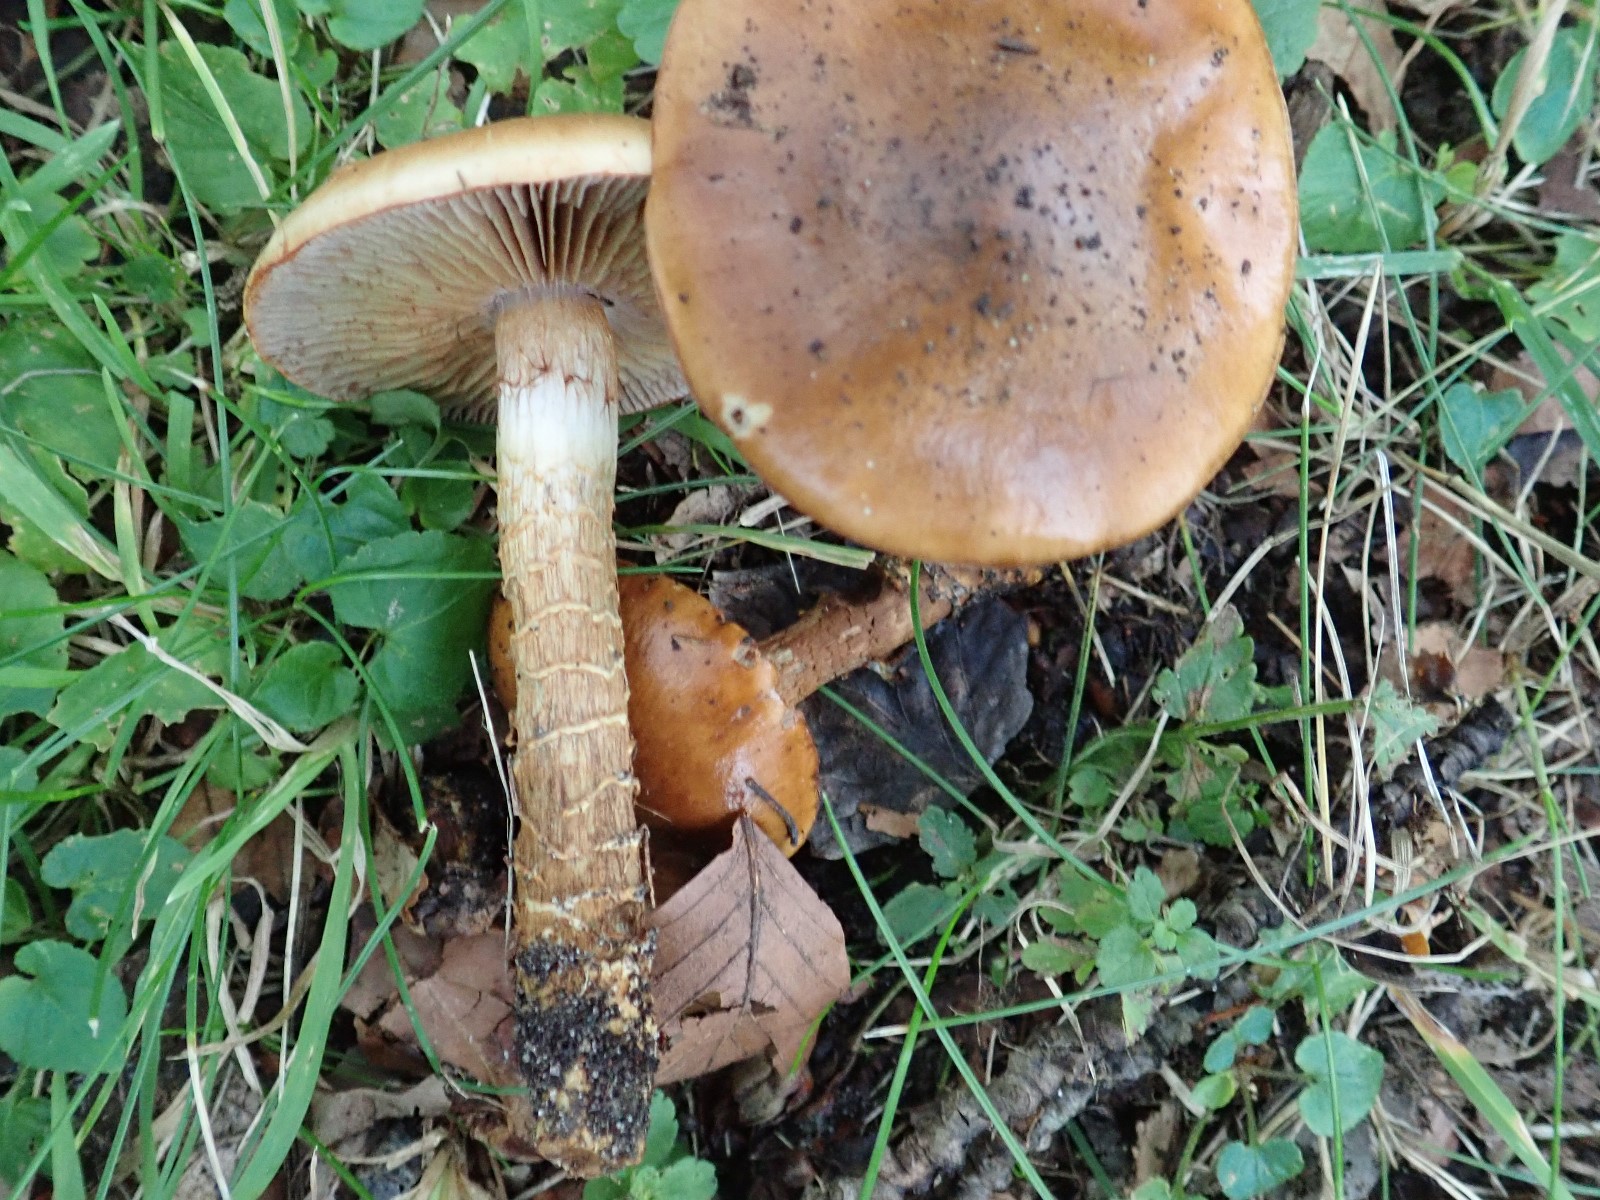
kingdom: Fungi
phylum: Basidiomycota
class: Agaricomycetes
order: Agaricales
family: Cortinariaceae
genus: Cortinarius
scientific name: Cortinarius trivialis
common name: brunslimet slørhat
